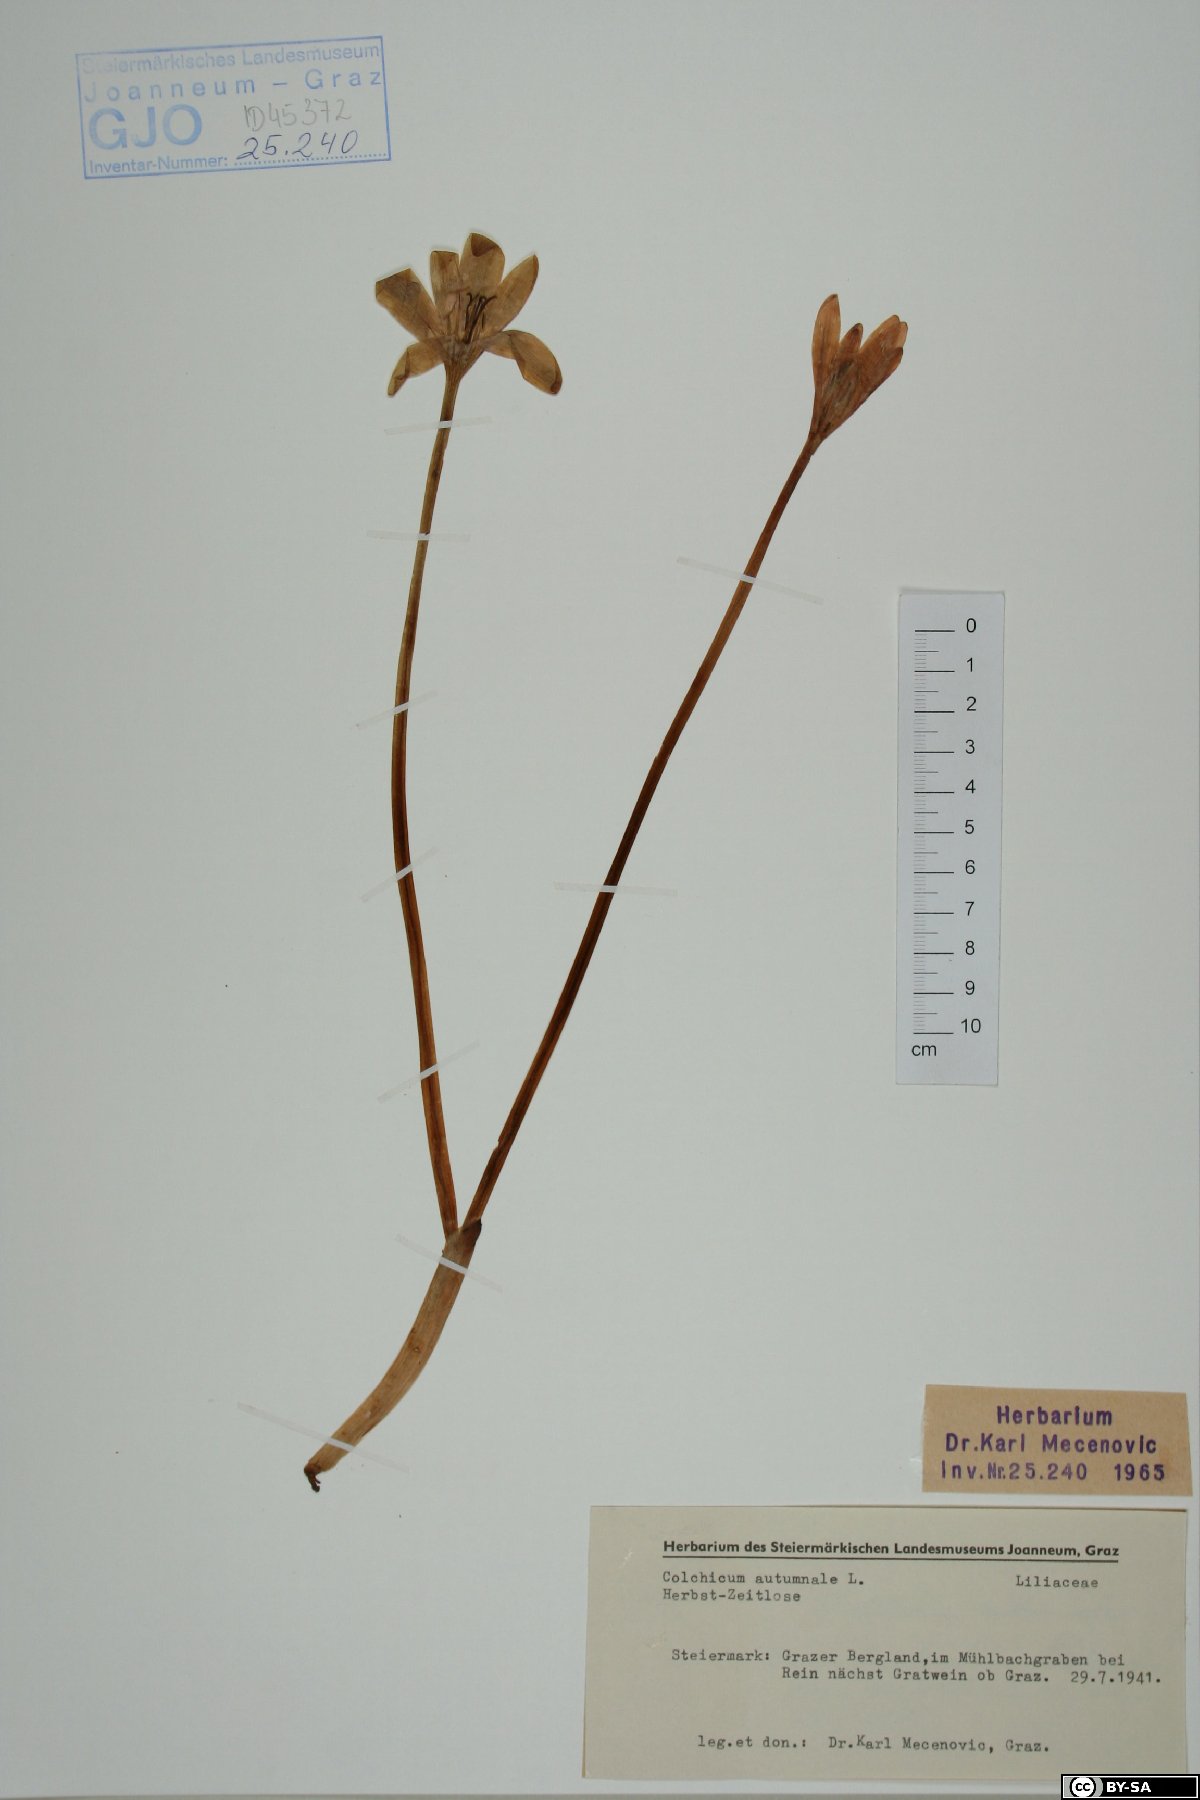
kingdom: Plantae
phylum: Tracheophyta
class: Liliopsida
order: Liliales
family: Colchicaceae
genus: Colchicum
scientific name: Colchicum autumnale
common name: Autumn crocus
